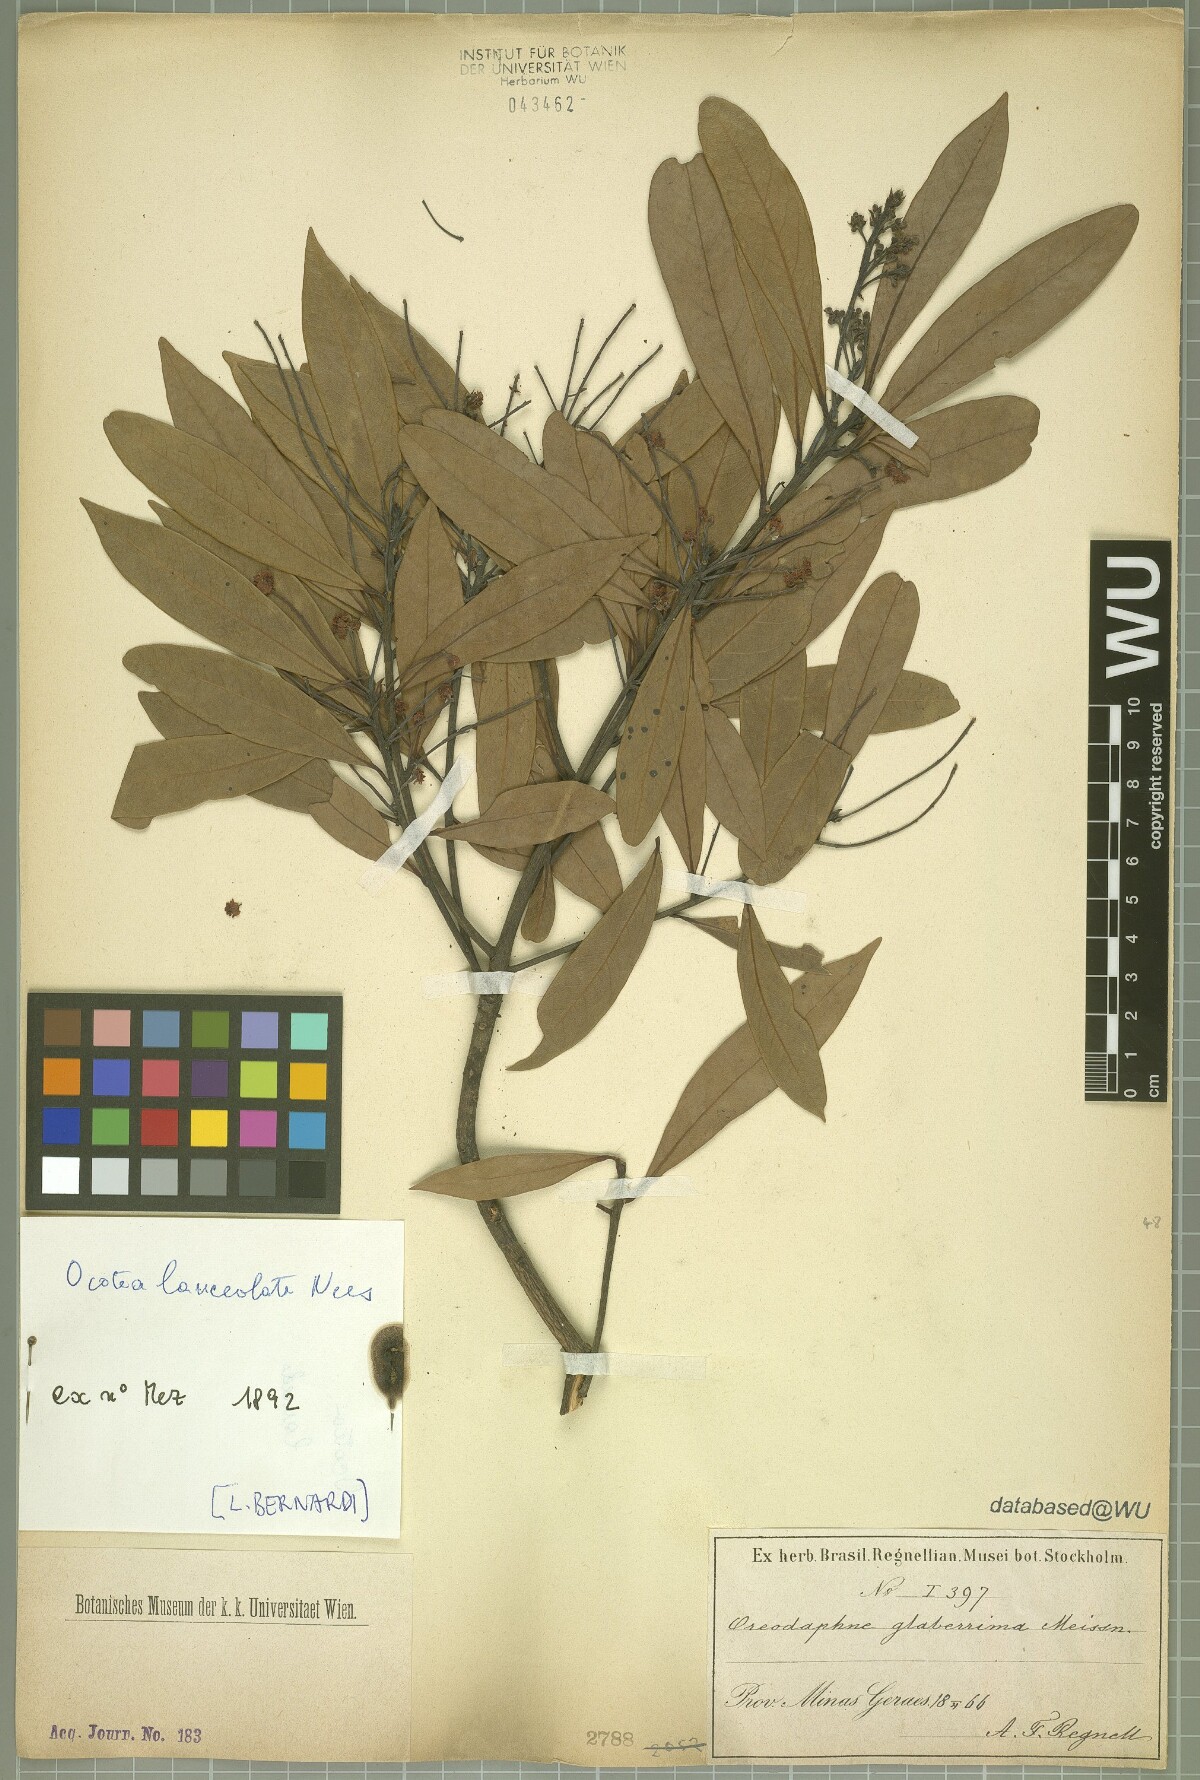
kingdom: Plantae
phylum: Tracheophyta
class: Magnoliopsida
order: Laurales
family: Lauraceae
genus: Phoebe
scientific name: Phoebe lanceolata
